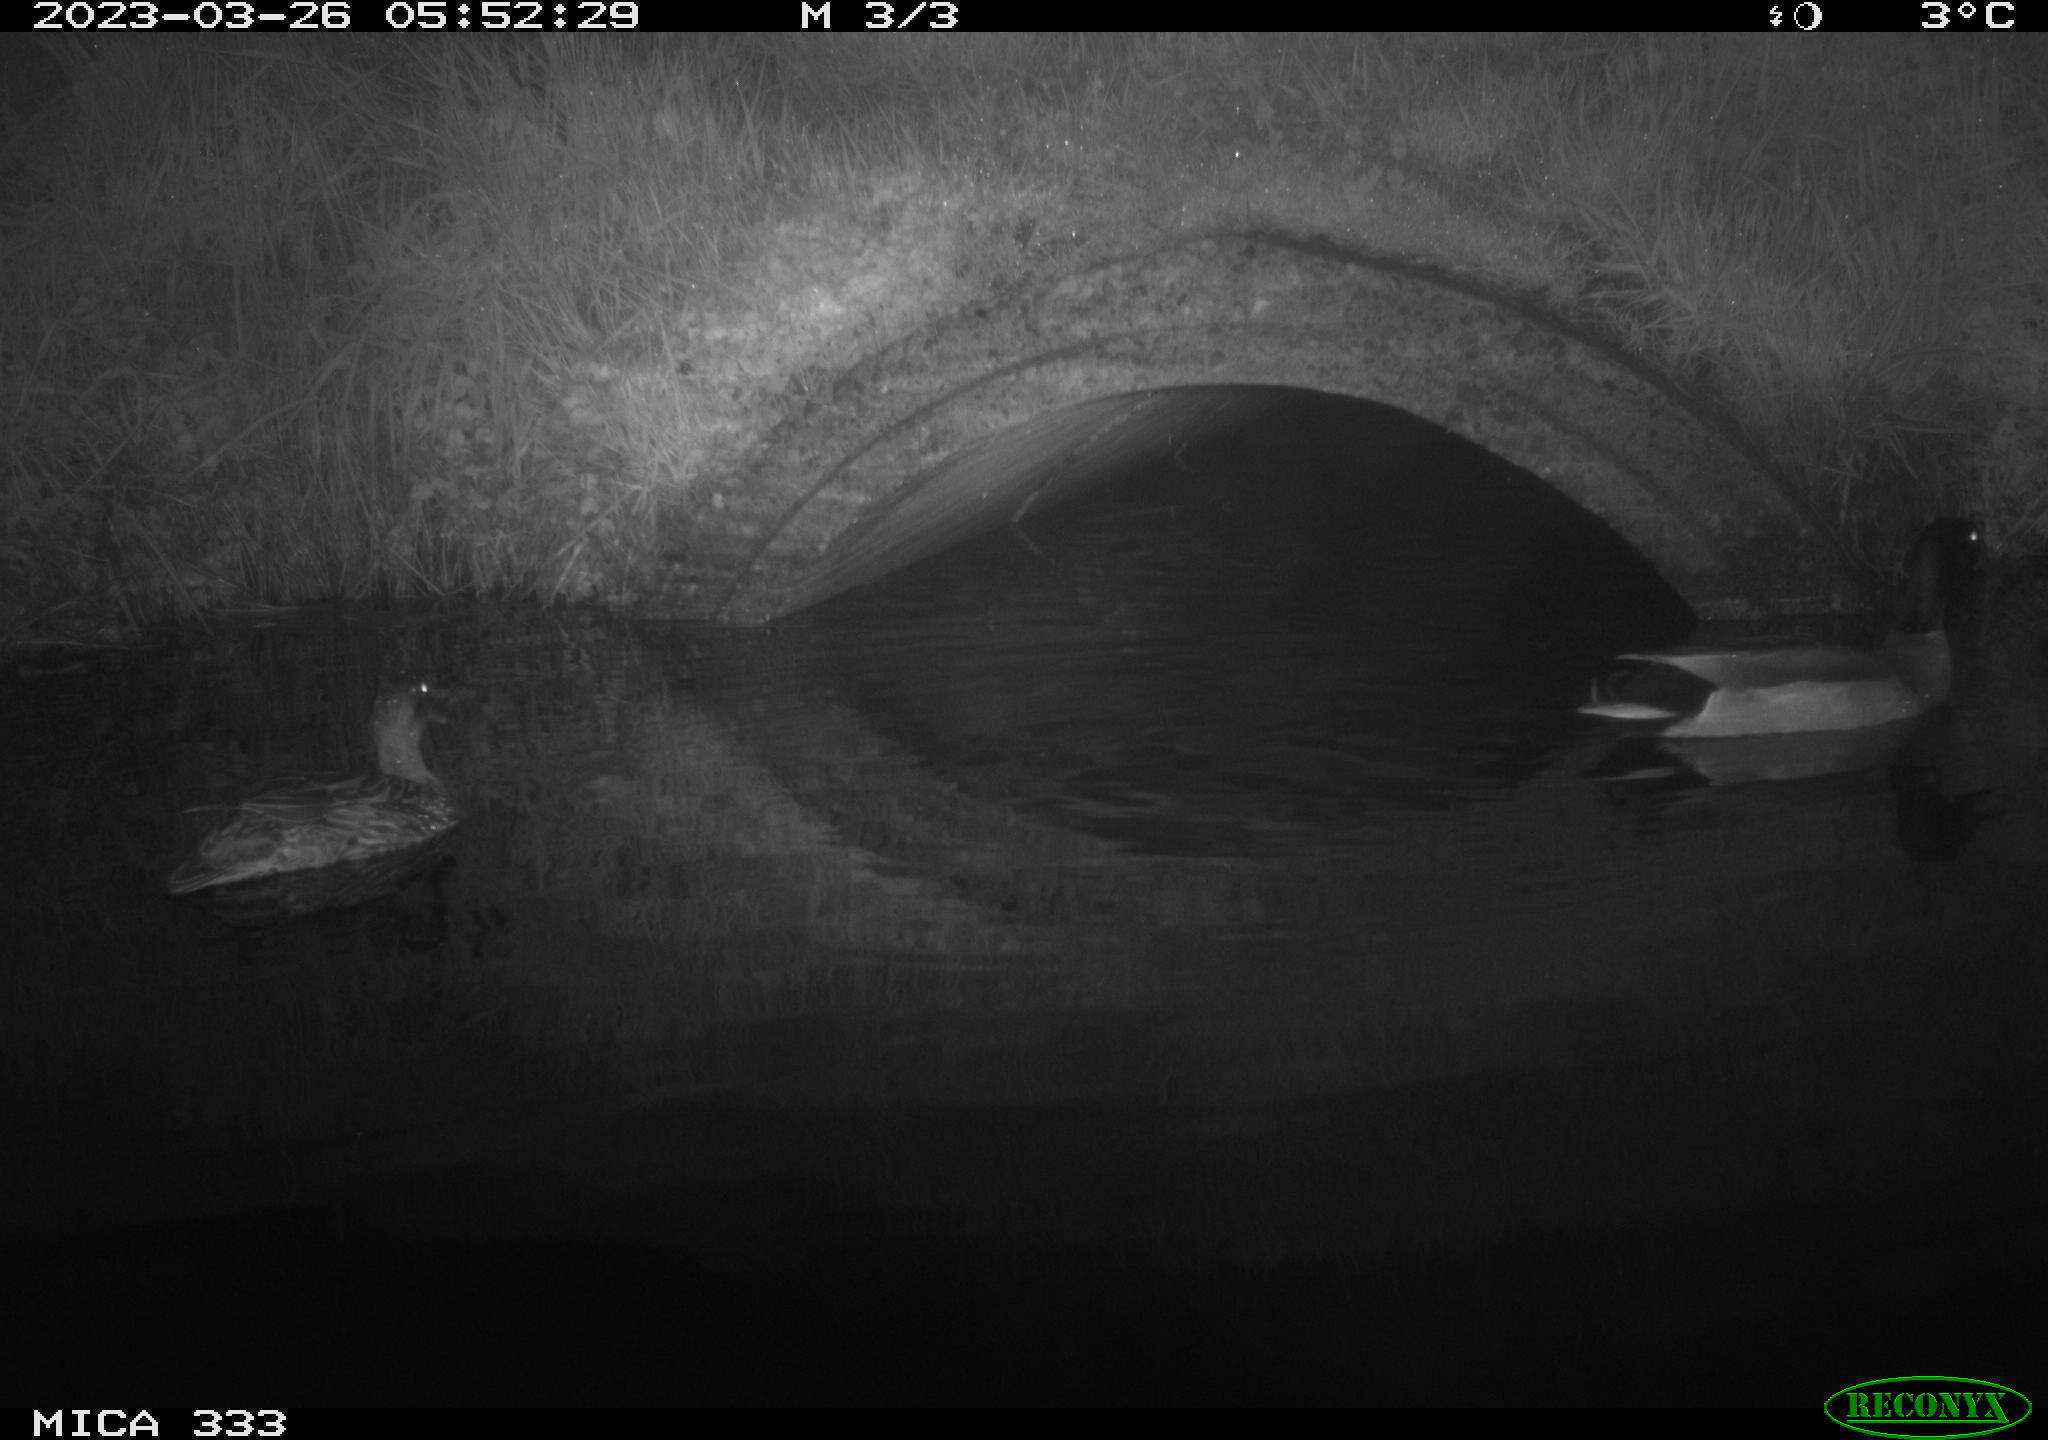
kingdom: Animalia
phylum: Chordata
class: Aves
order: Anseriformes
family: Anatidae
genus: Anas
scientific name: Anas platyrhynchos
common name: Mallard
